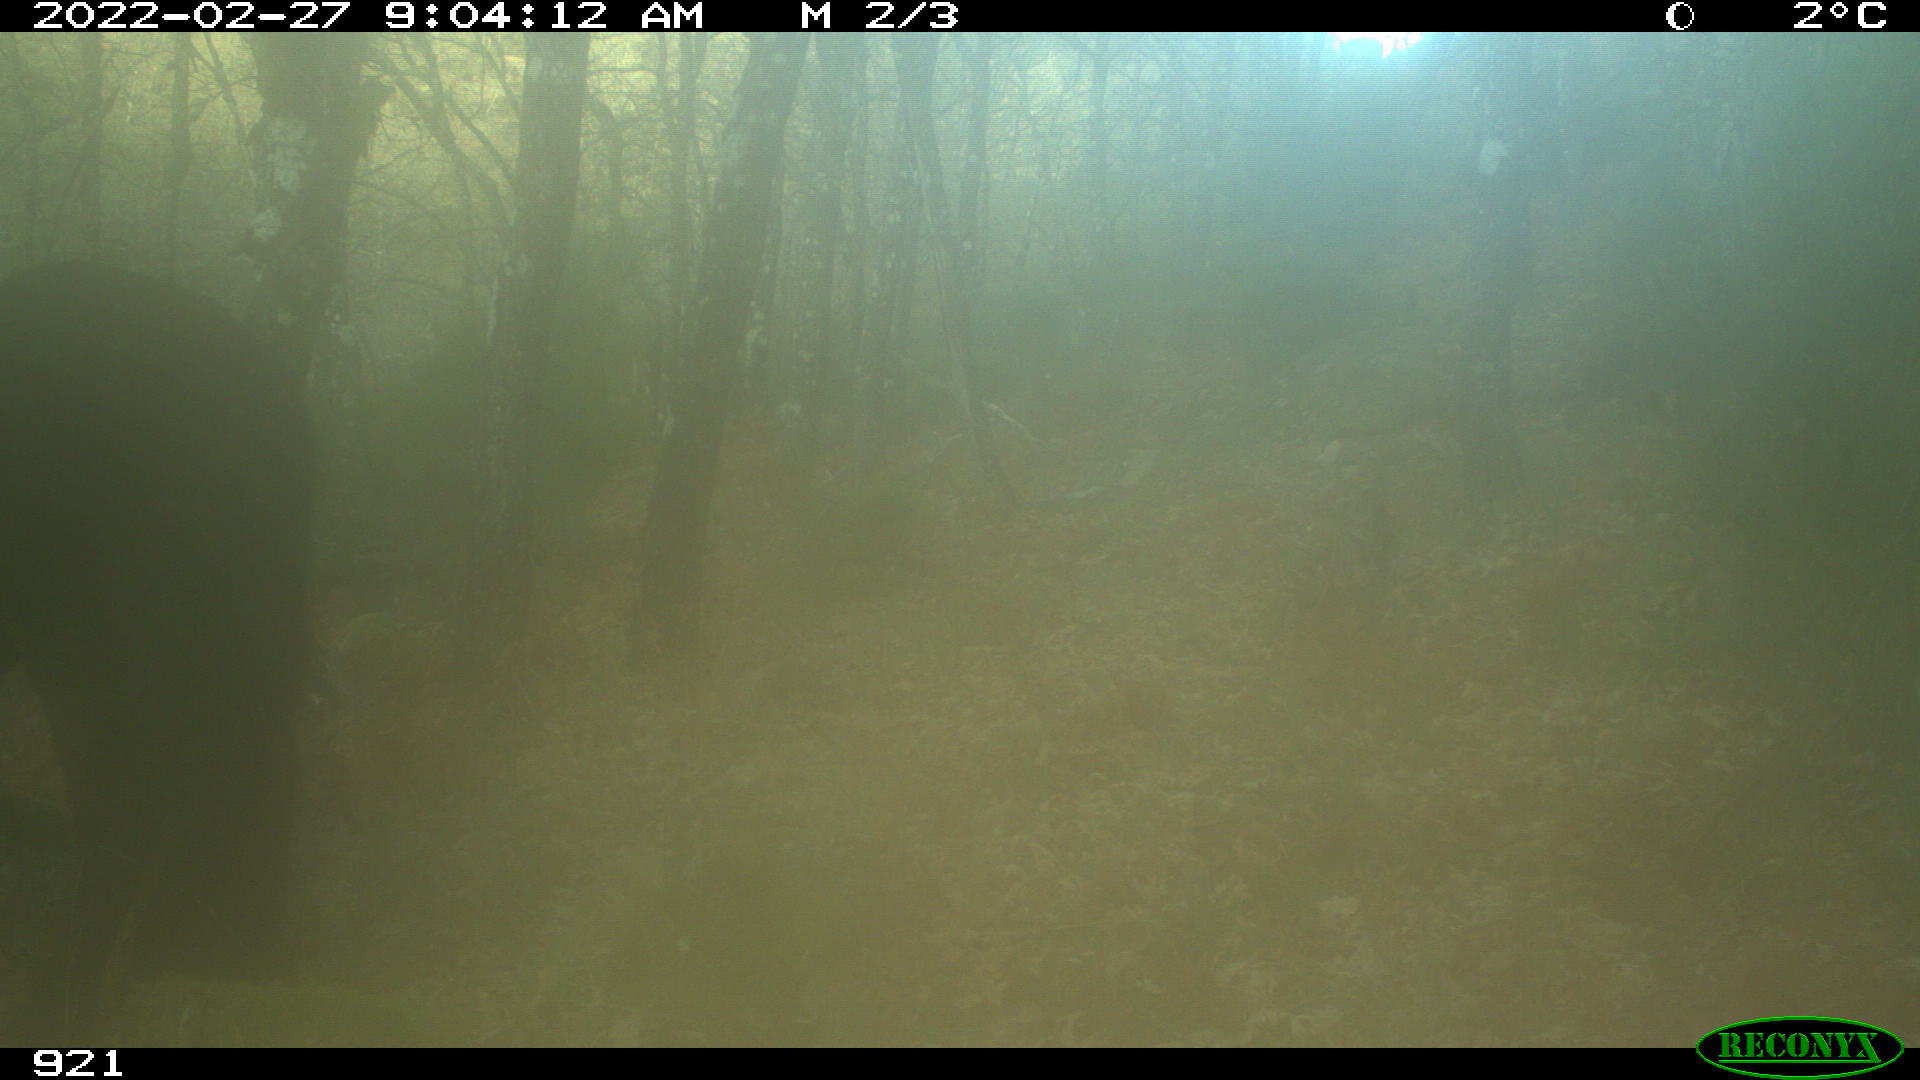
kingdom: Animalia
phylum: Chordata
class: Mammalia
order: Perissodactyla
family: Equidae
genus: Equus
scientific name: Equus caballus
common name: Horse
